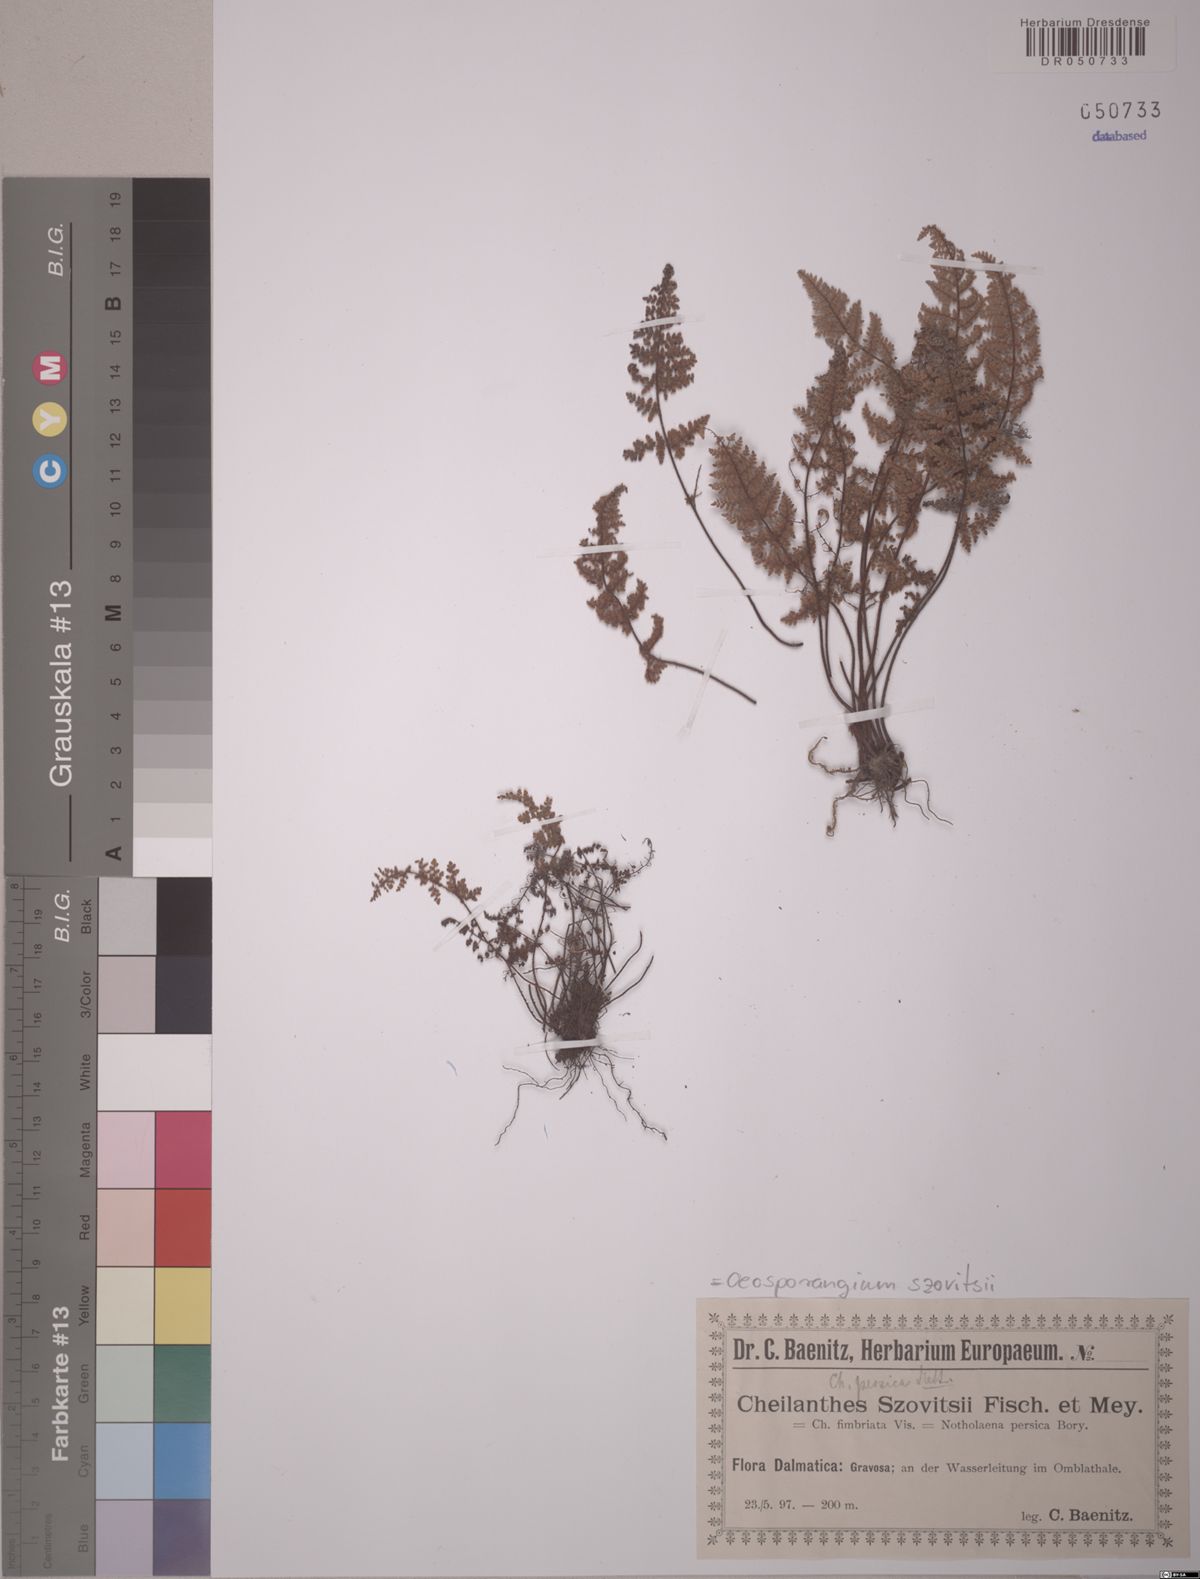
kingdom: Plantae
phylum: Tracheophyta
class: Polypodiopsida
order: Polypodiales
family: Pteridaceae
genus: Oeosporangium
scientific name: Oeosporangium persicum
